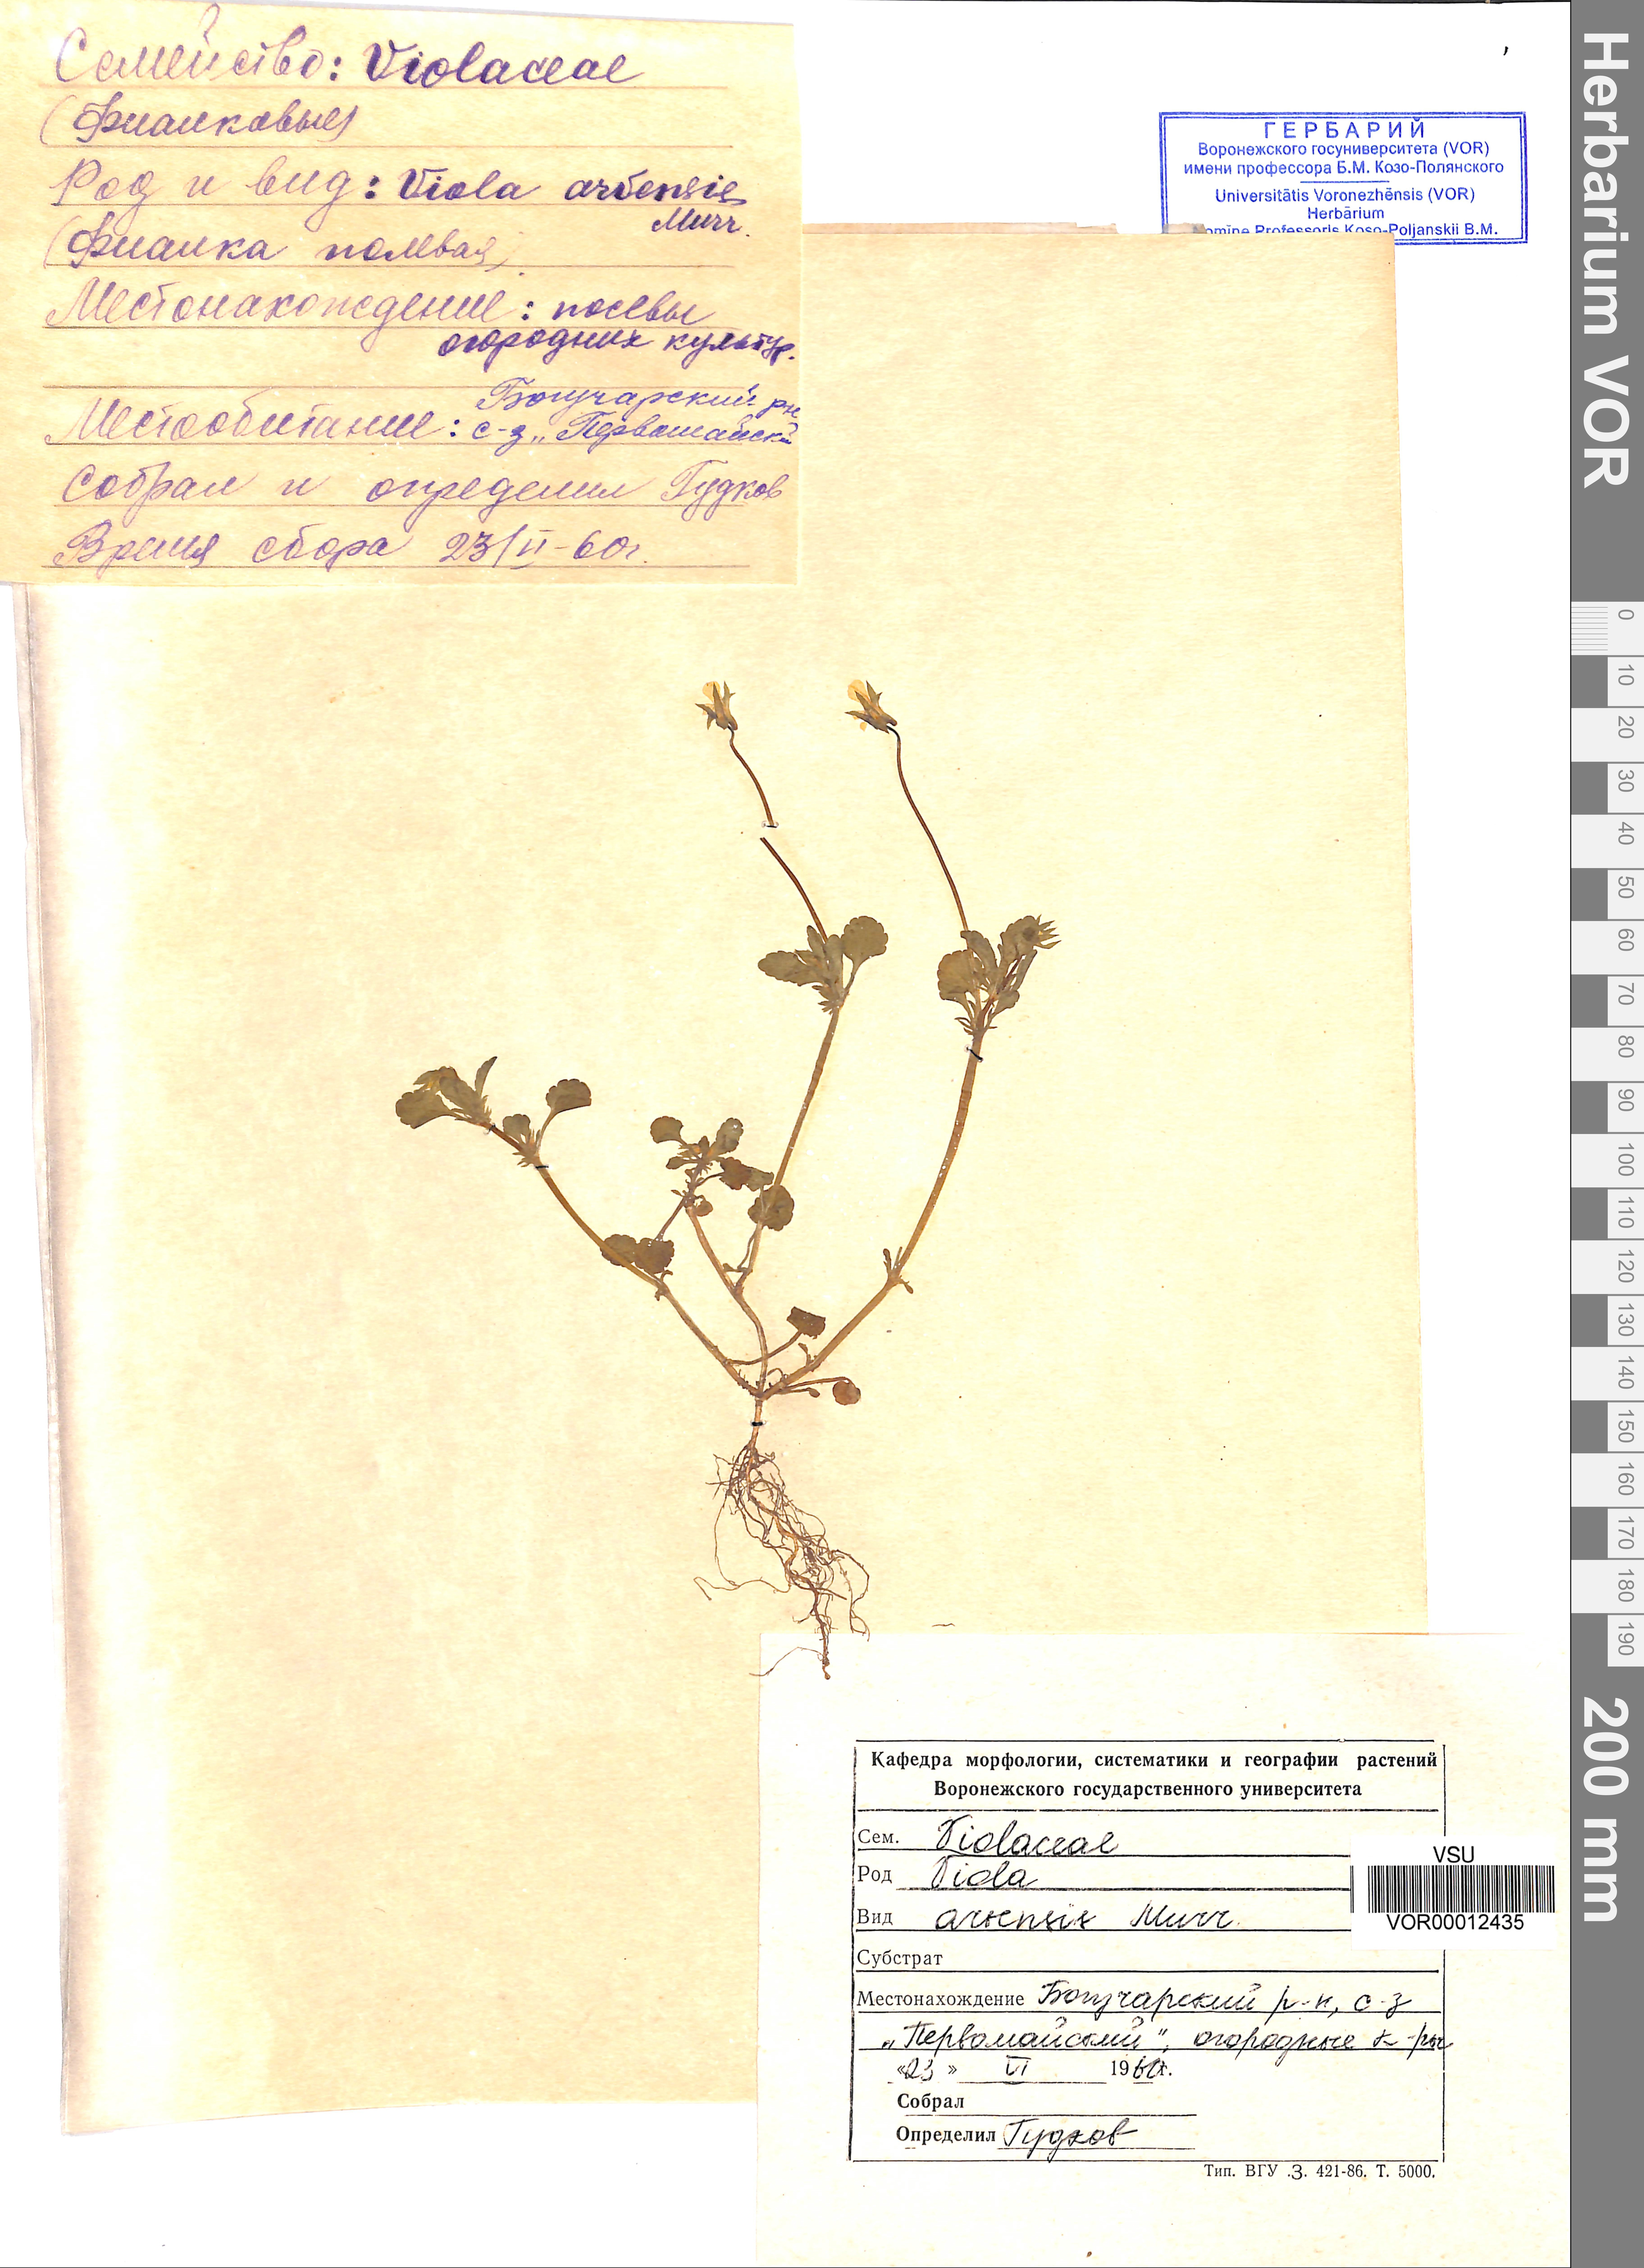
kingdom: Plantae
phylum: Tracheophyta
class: Magnoliopsida
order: Malpighiales
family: Violaceae
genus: Viola
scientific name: Viola arvensis
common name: Field pansy
